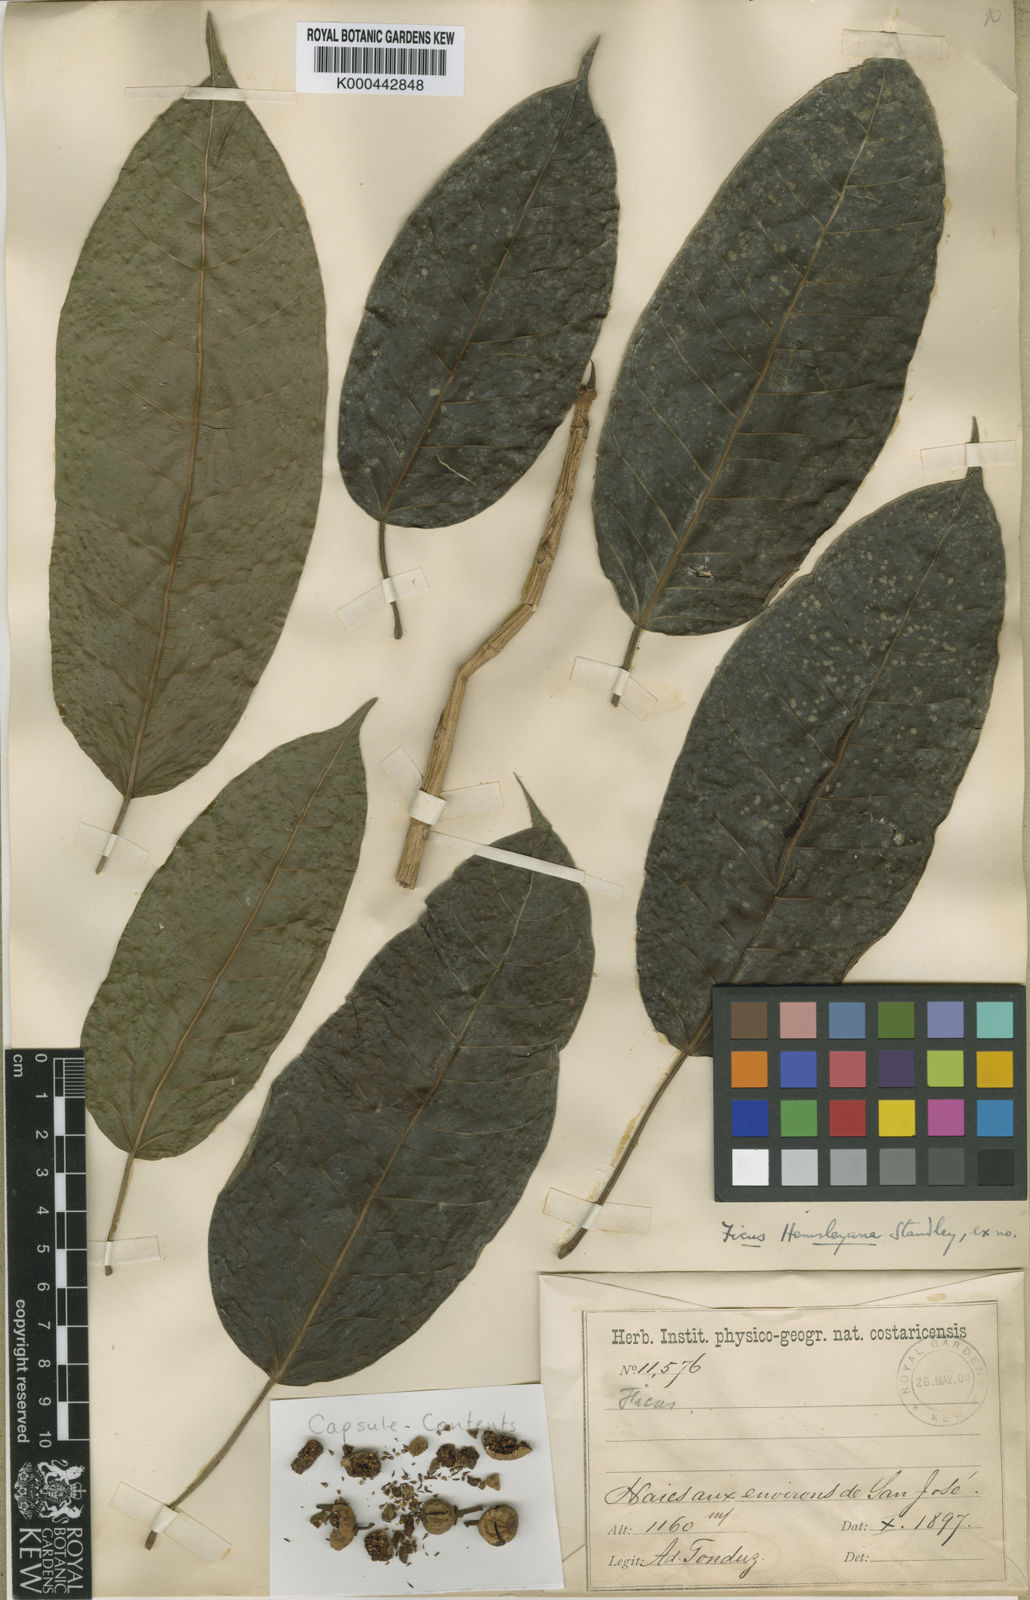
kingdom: Plantae
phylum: Tracheophyta
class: Magnoliopsida
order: Rosales
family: Moraceae
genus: Ficus
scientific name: Ficus goldmanii
